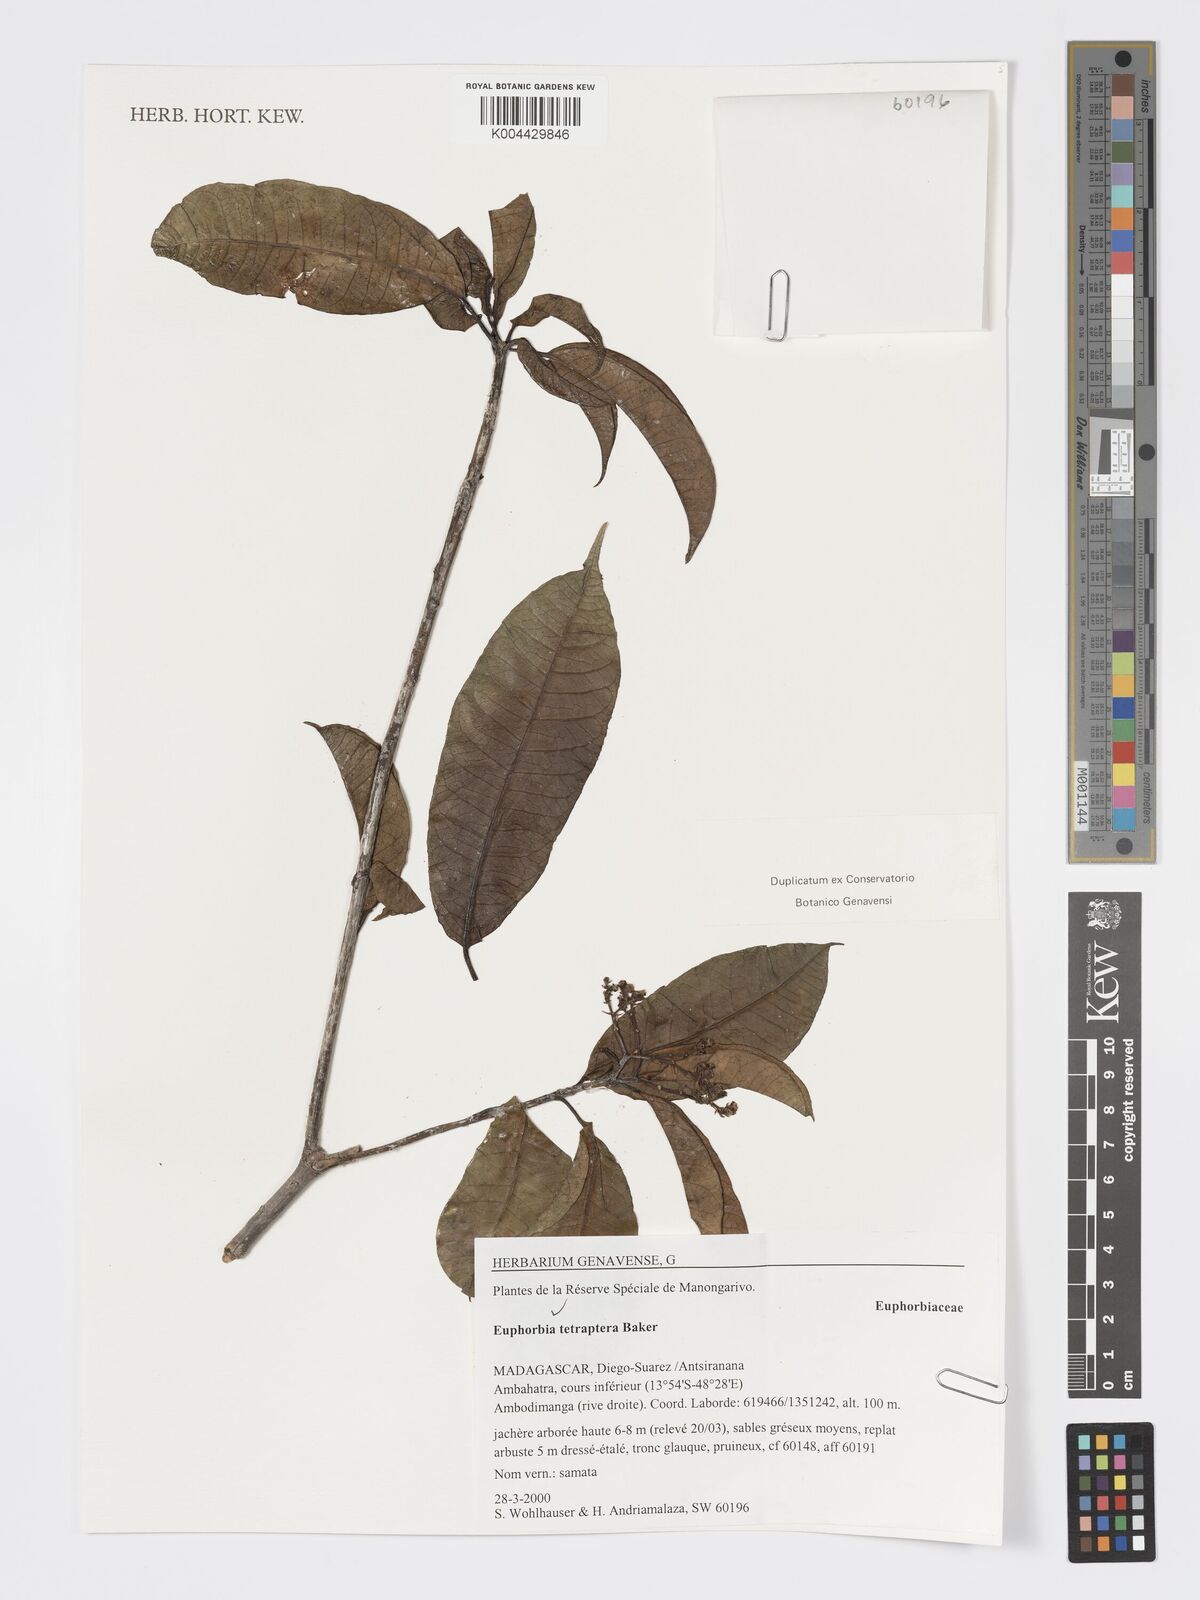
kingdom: Plantae
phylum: Tracheophyta
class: Magnoliopsida
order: Malpighiales
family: Euphorbiaceae
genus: Euphorbia
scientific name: Euphorbia tetraptera
